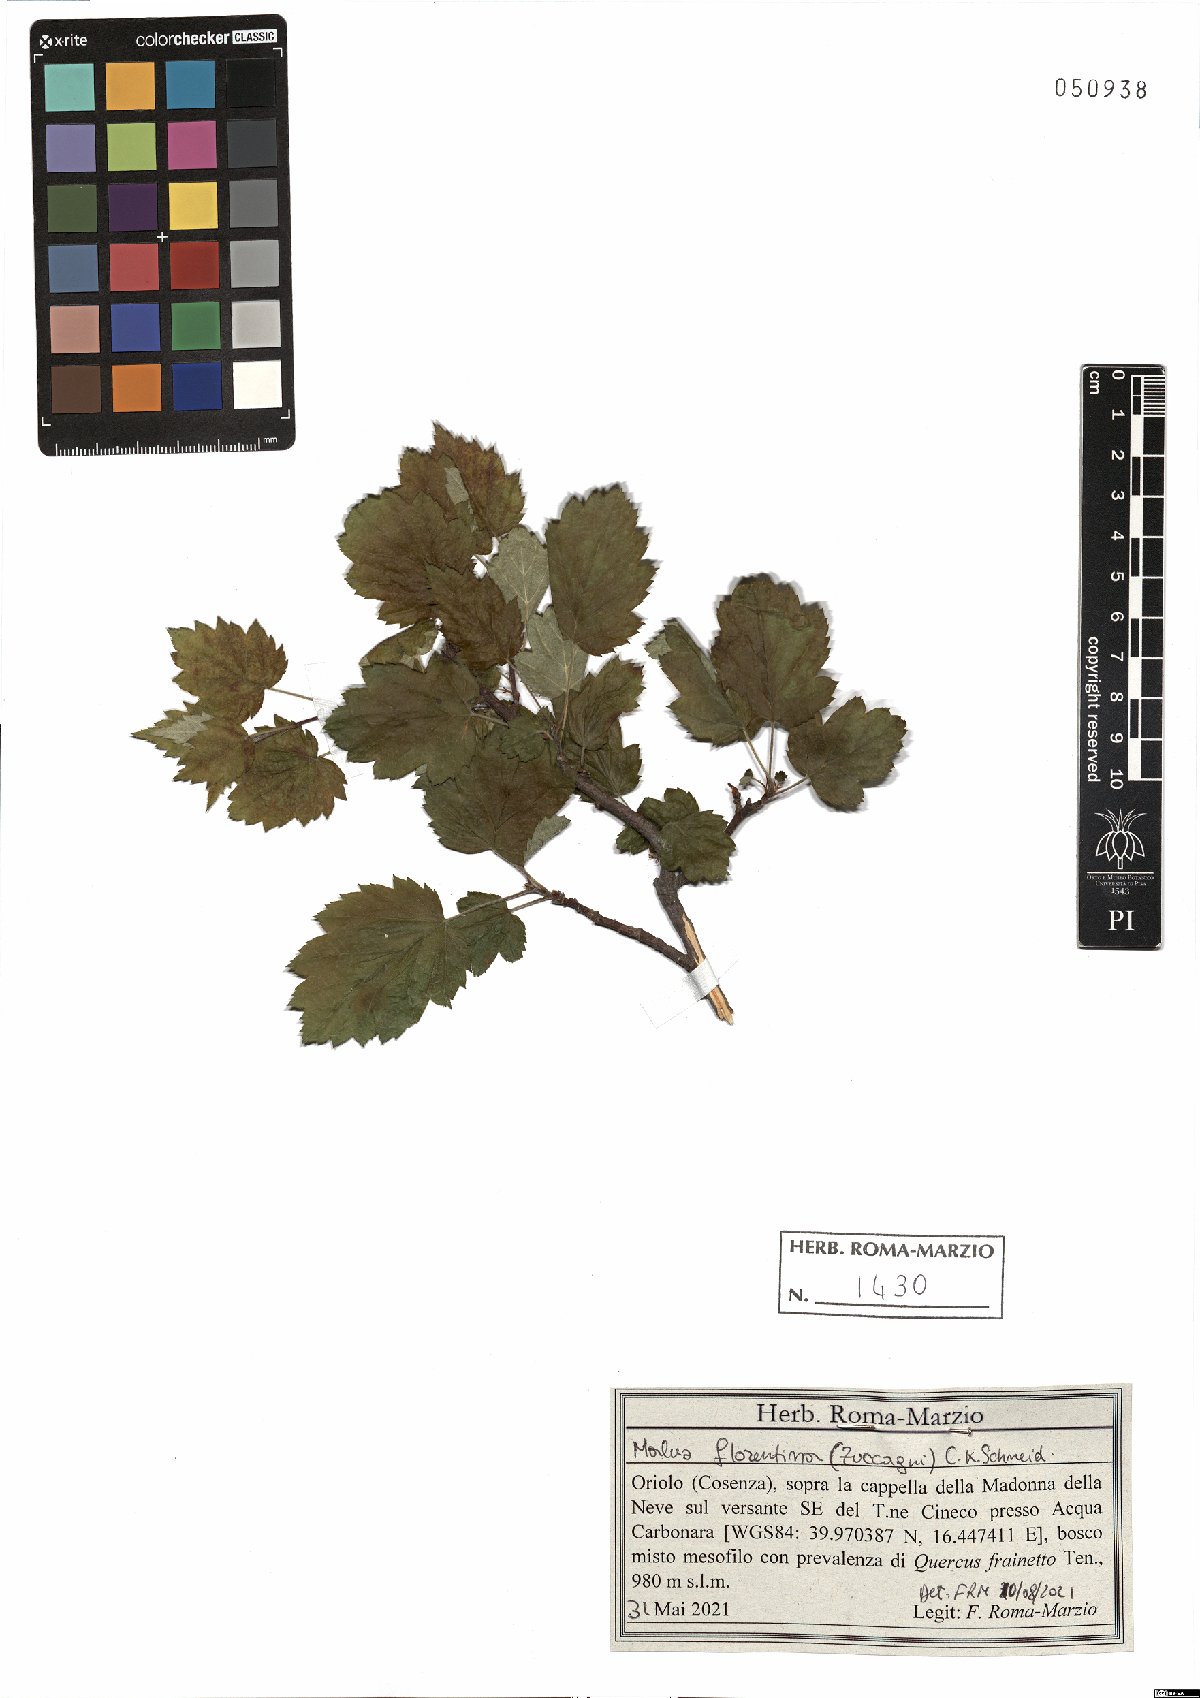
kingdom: Plantae
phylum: Tracheophyta
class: Magnoliopsida
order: Rosales
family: Rosaceae
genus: Tormimalus
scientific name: Tormimalus florentina
